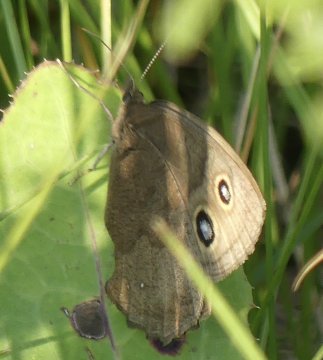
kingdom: Animalia
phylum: Arthropoda
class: Insecta
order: Lepidoptera
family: Nymphalidae
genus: Cercyonis
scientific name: Cercyonis pegala
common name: Common Wood-Nymph
